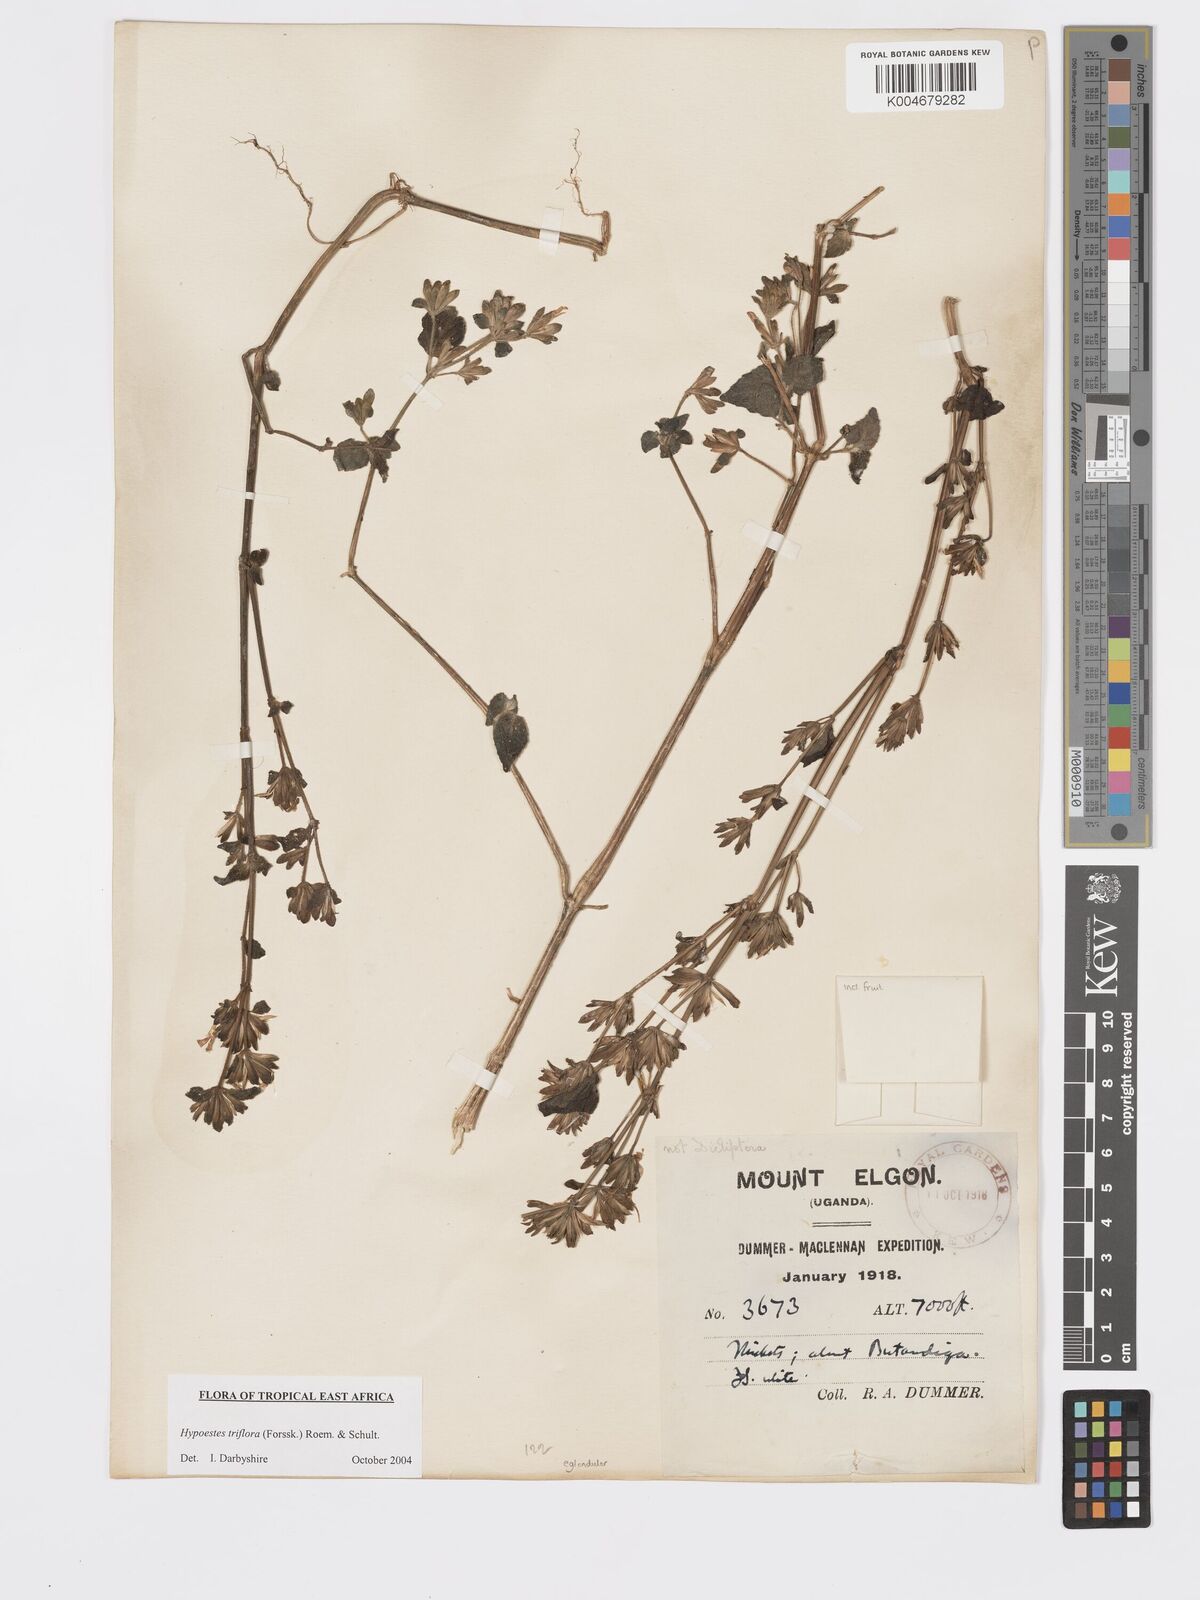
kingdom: Plantae
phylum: Tracheophyta
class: Magnoliopsida
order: Lamiales
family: Acanthaceae
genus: Hypoestes
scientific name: Hypoestes triflora
